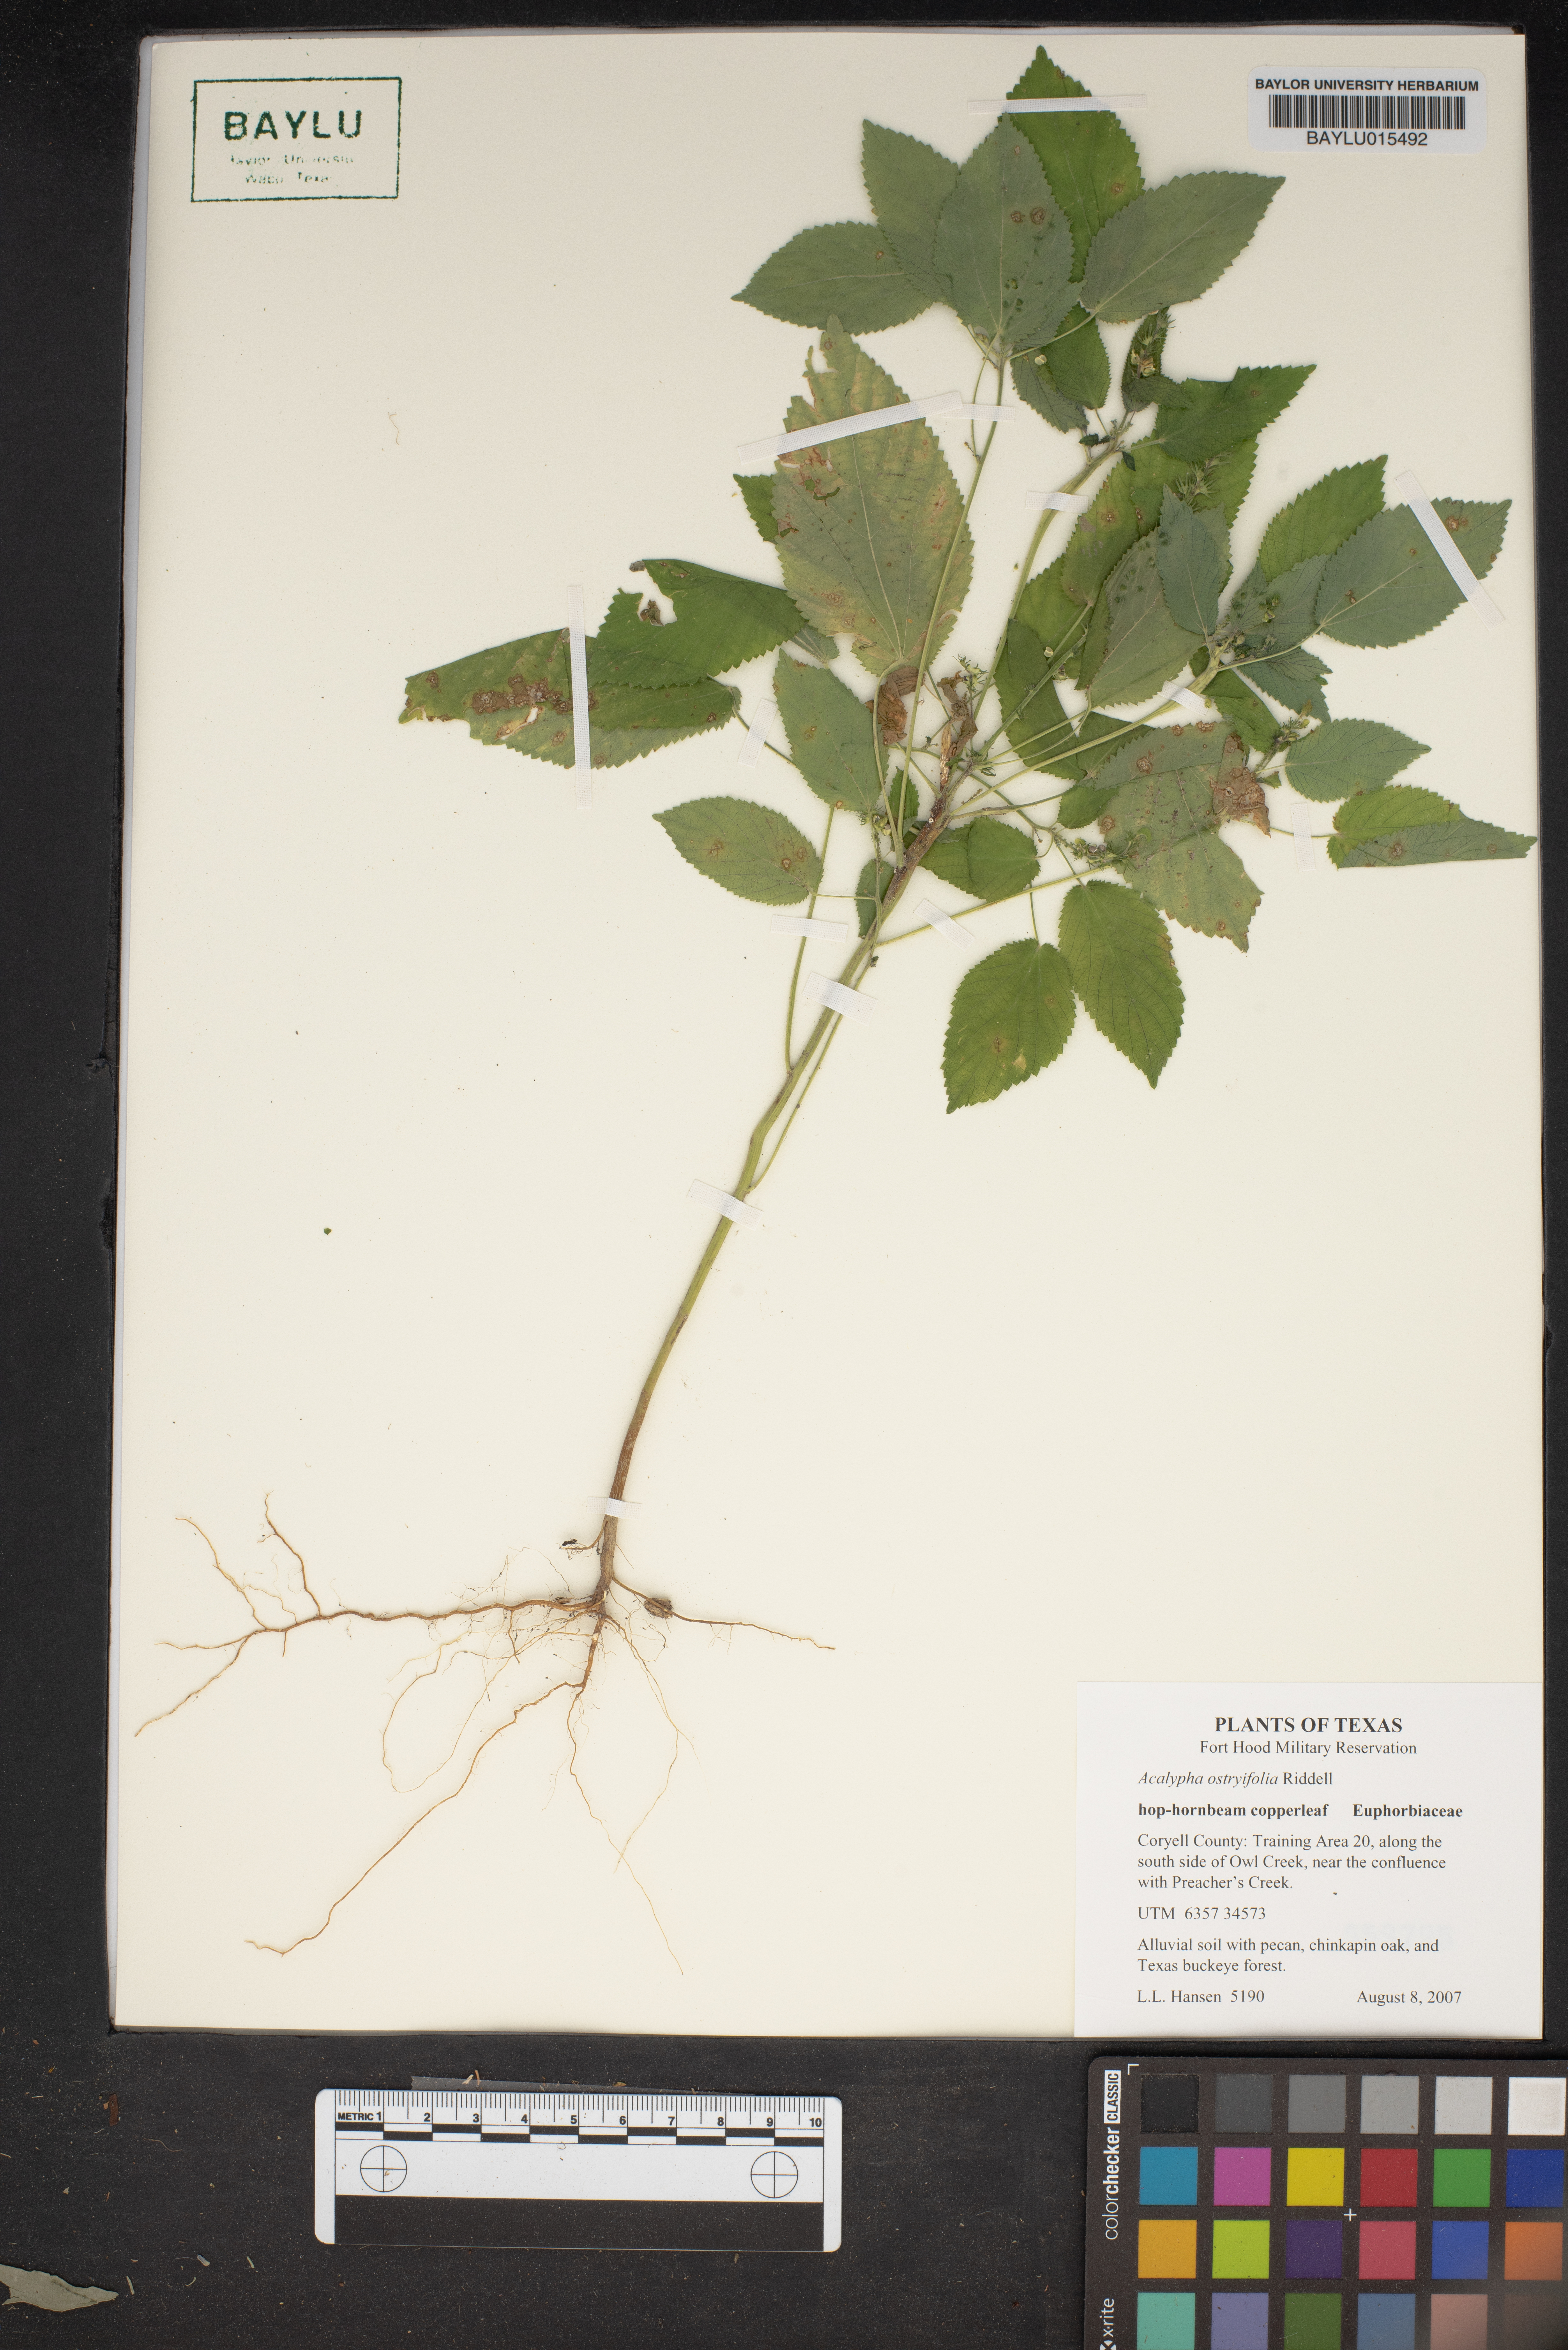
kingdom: Plantae
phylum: Tracheophyta
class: Magnoliopsida
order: Malpighiales
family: Euphorbiaceae
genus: Acalypha
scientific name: Acalypha persimilis
